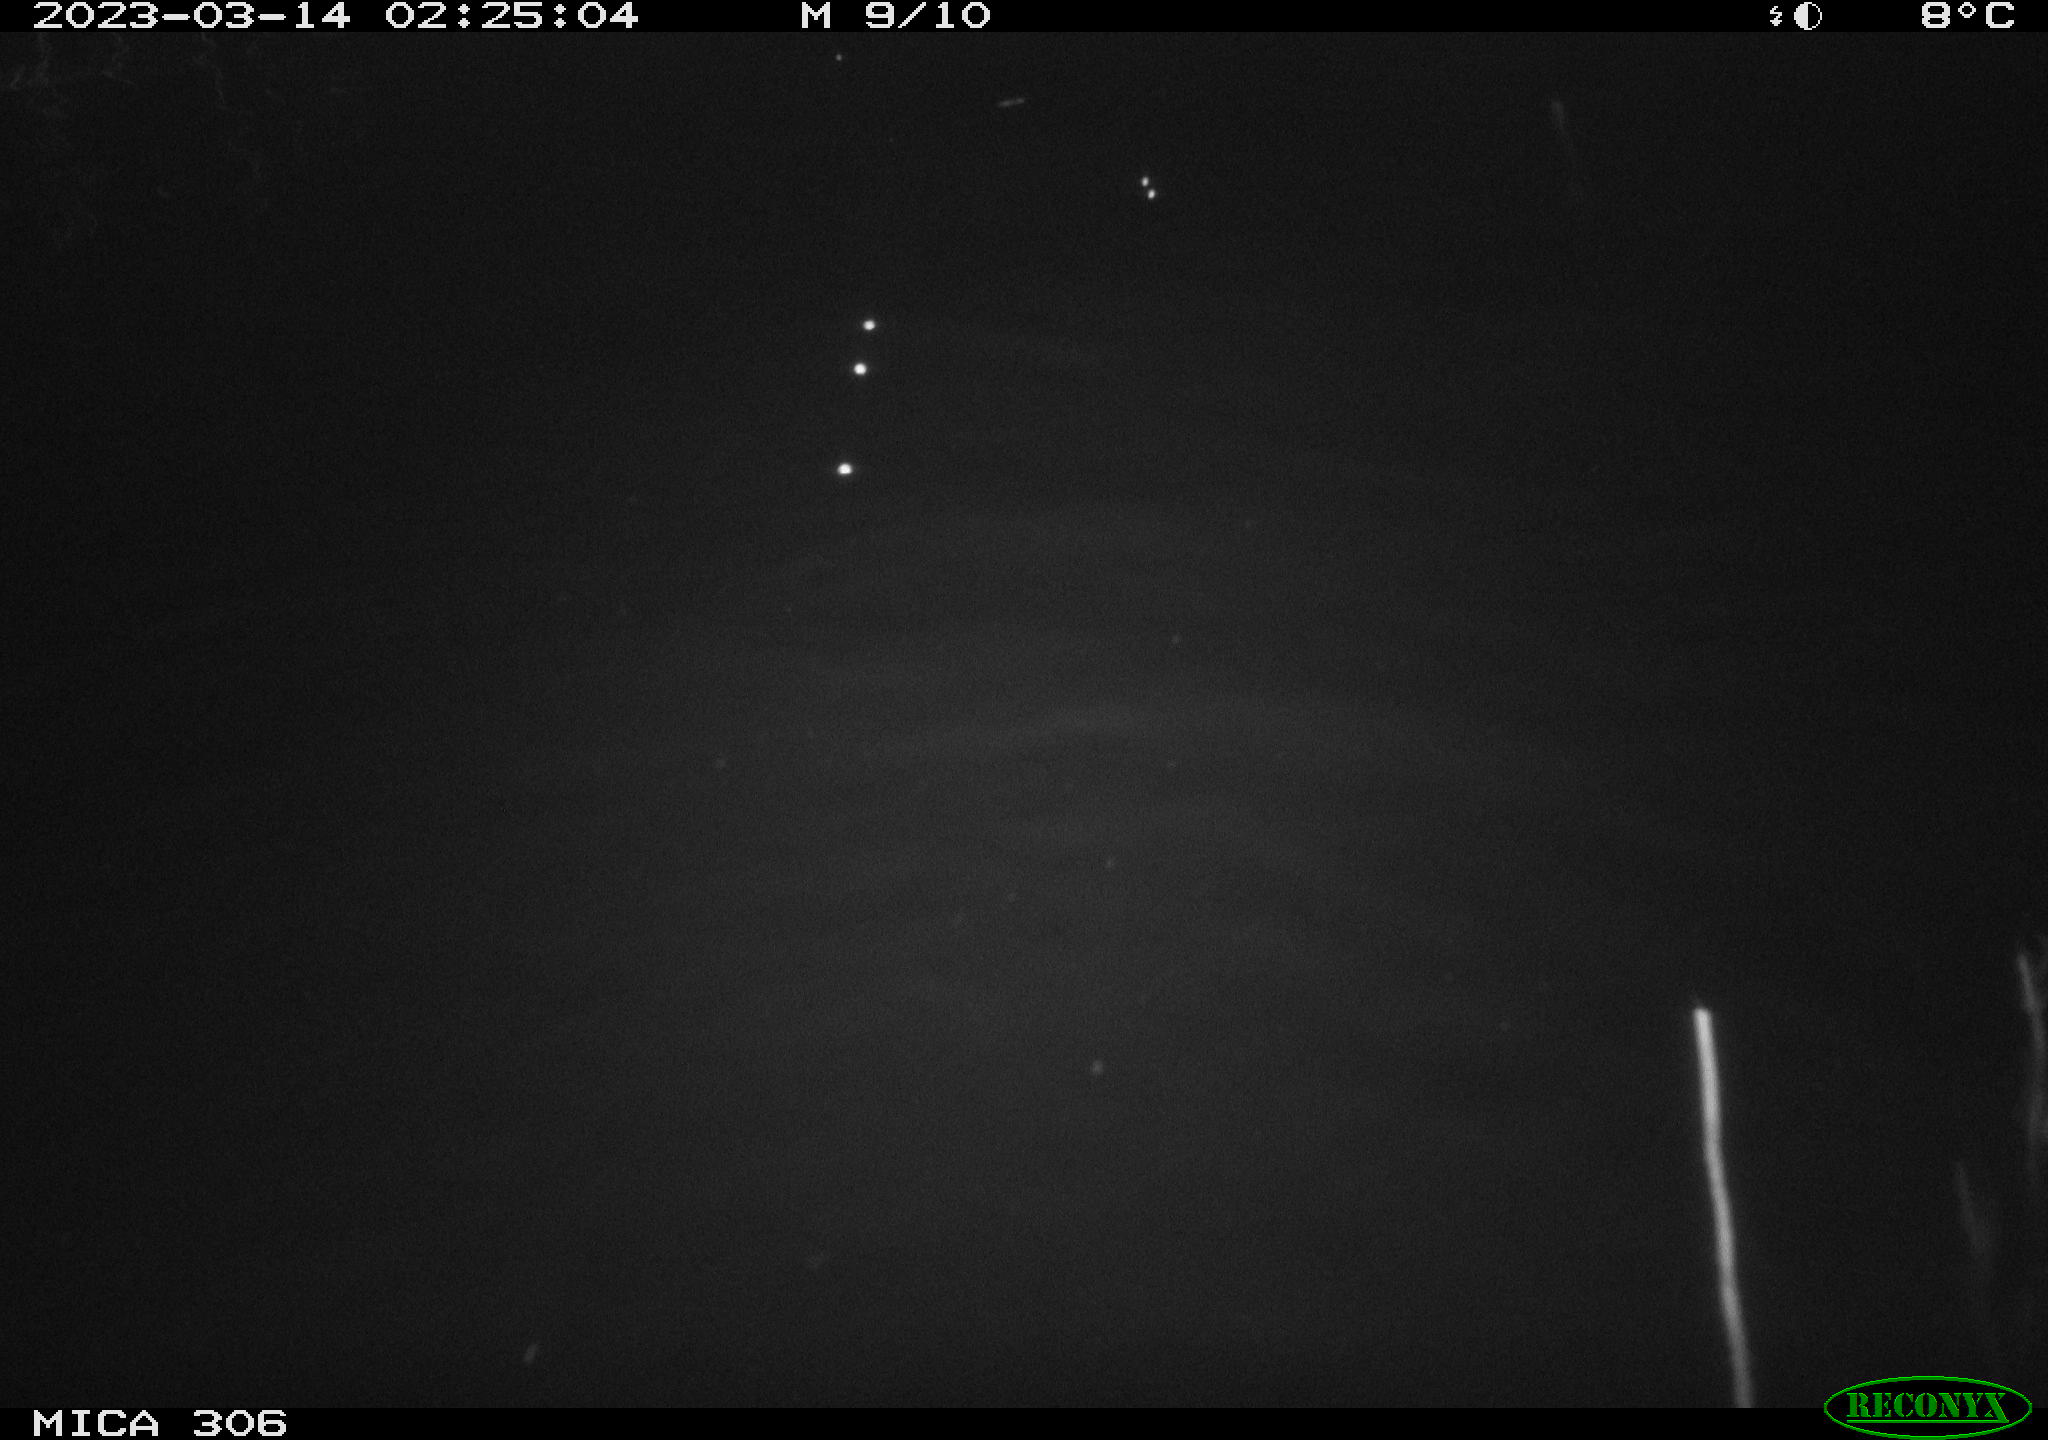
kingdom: Animalia
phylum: Chordata
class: Mammalia
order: Rodentia
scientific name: Rodentia
